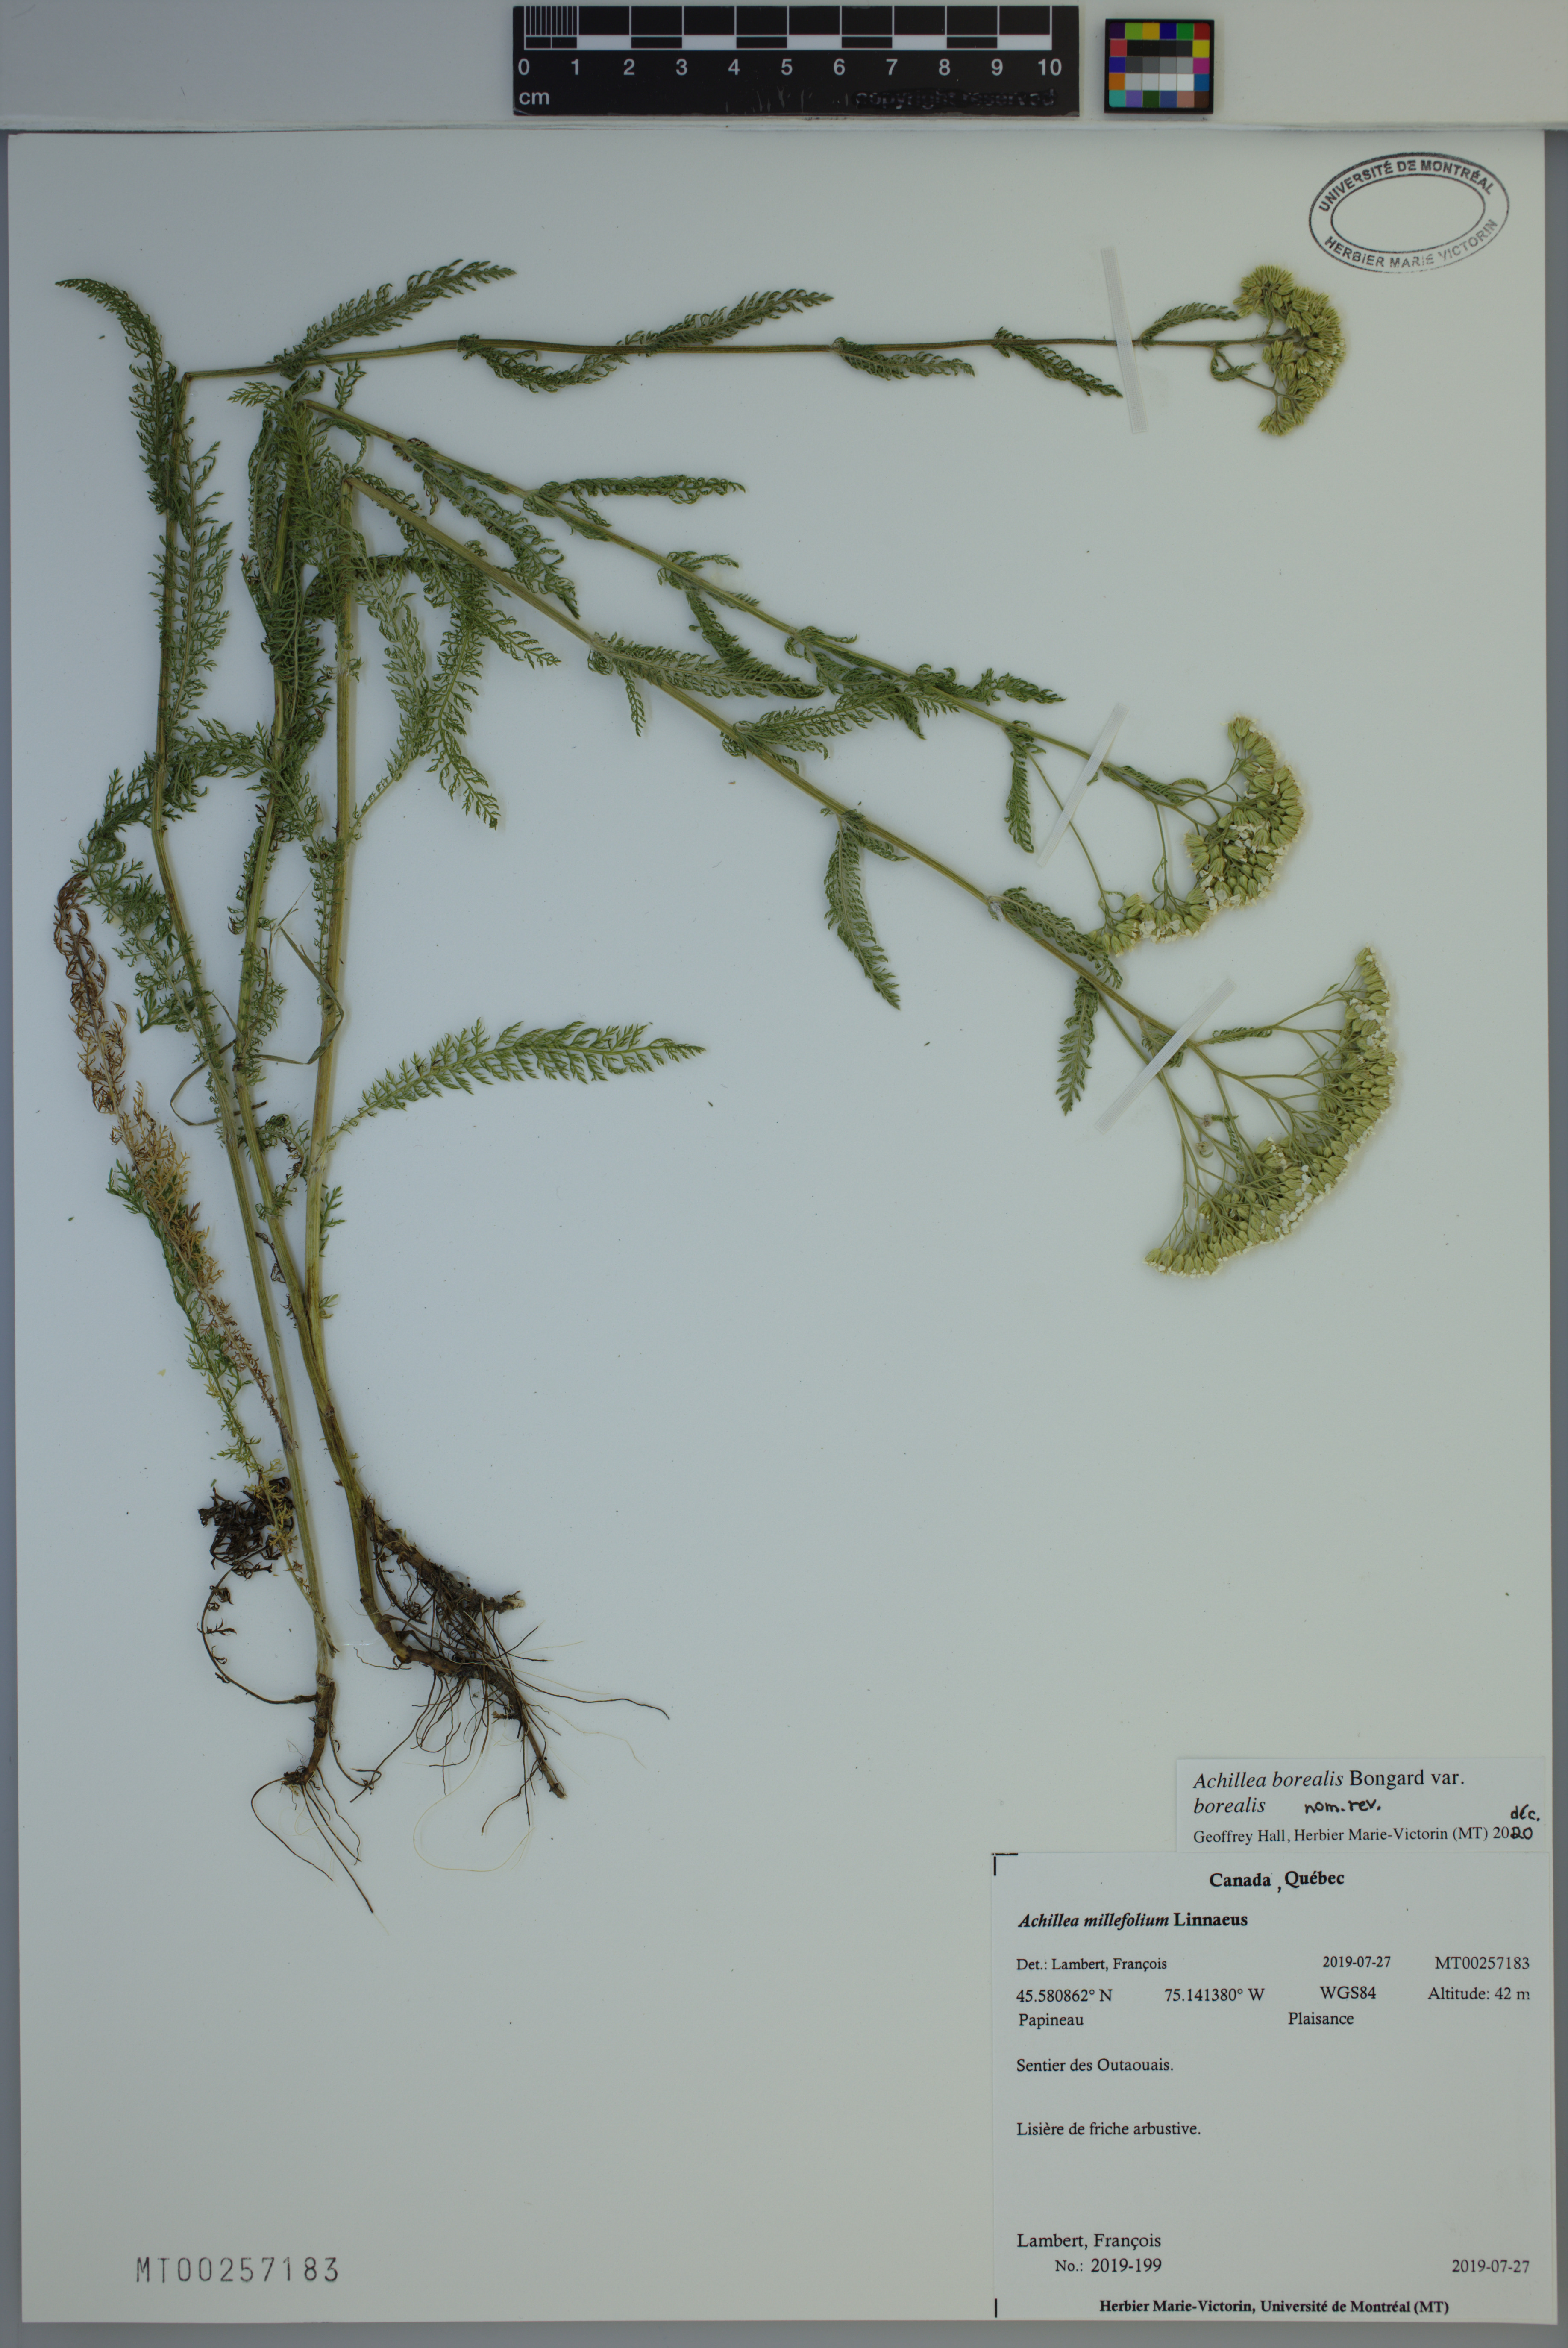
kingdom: Plantae
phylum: Tracheophyta
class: Magnoliopsida
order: Asterales
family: Asteraceae
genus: Achillea
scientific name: Achillea millefolium
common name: Yarrow
